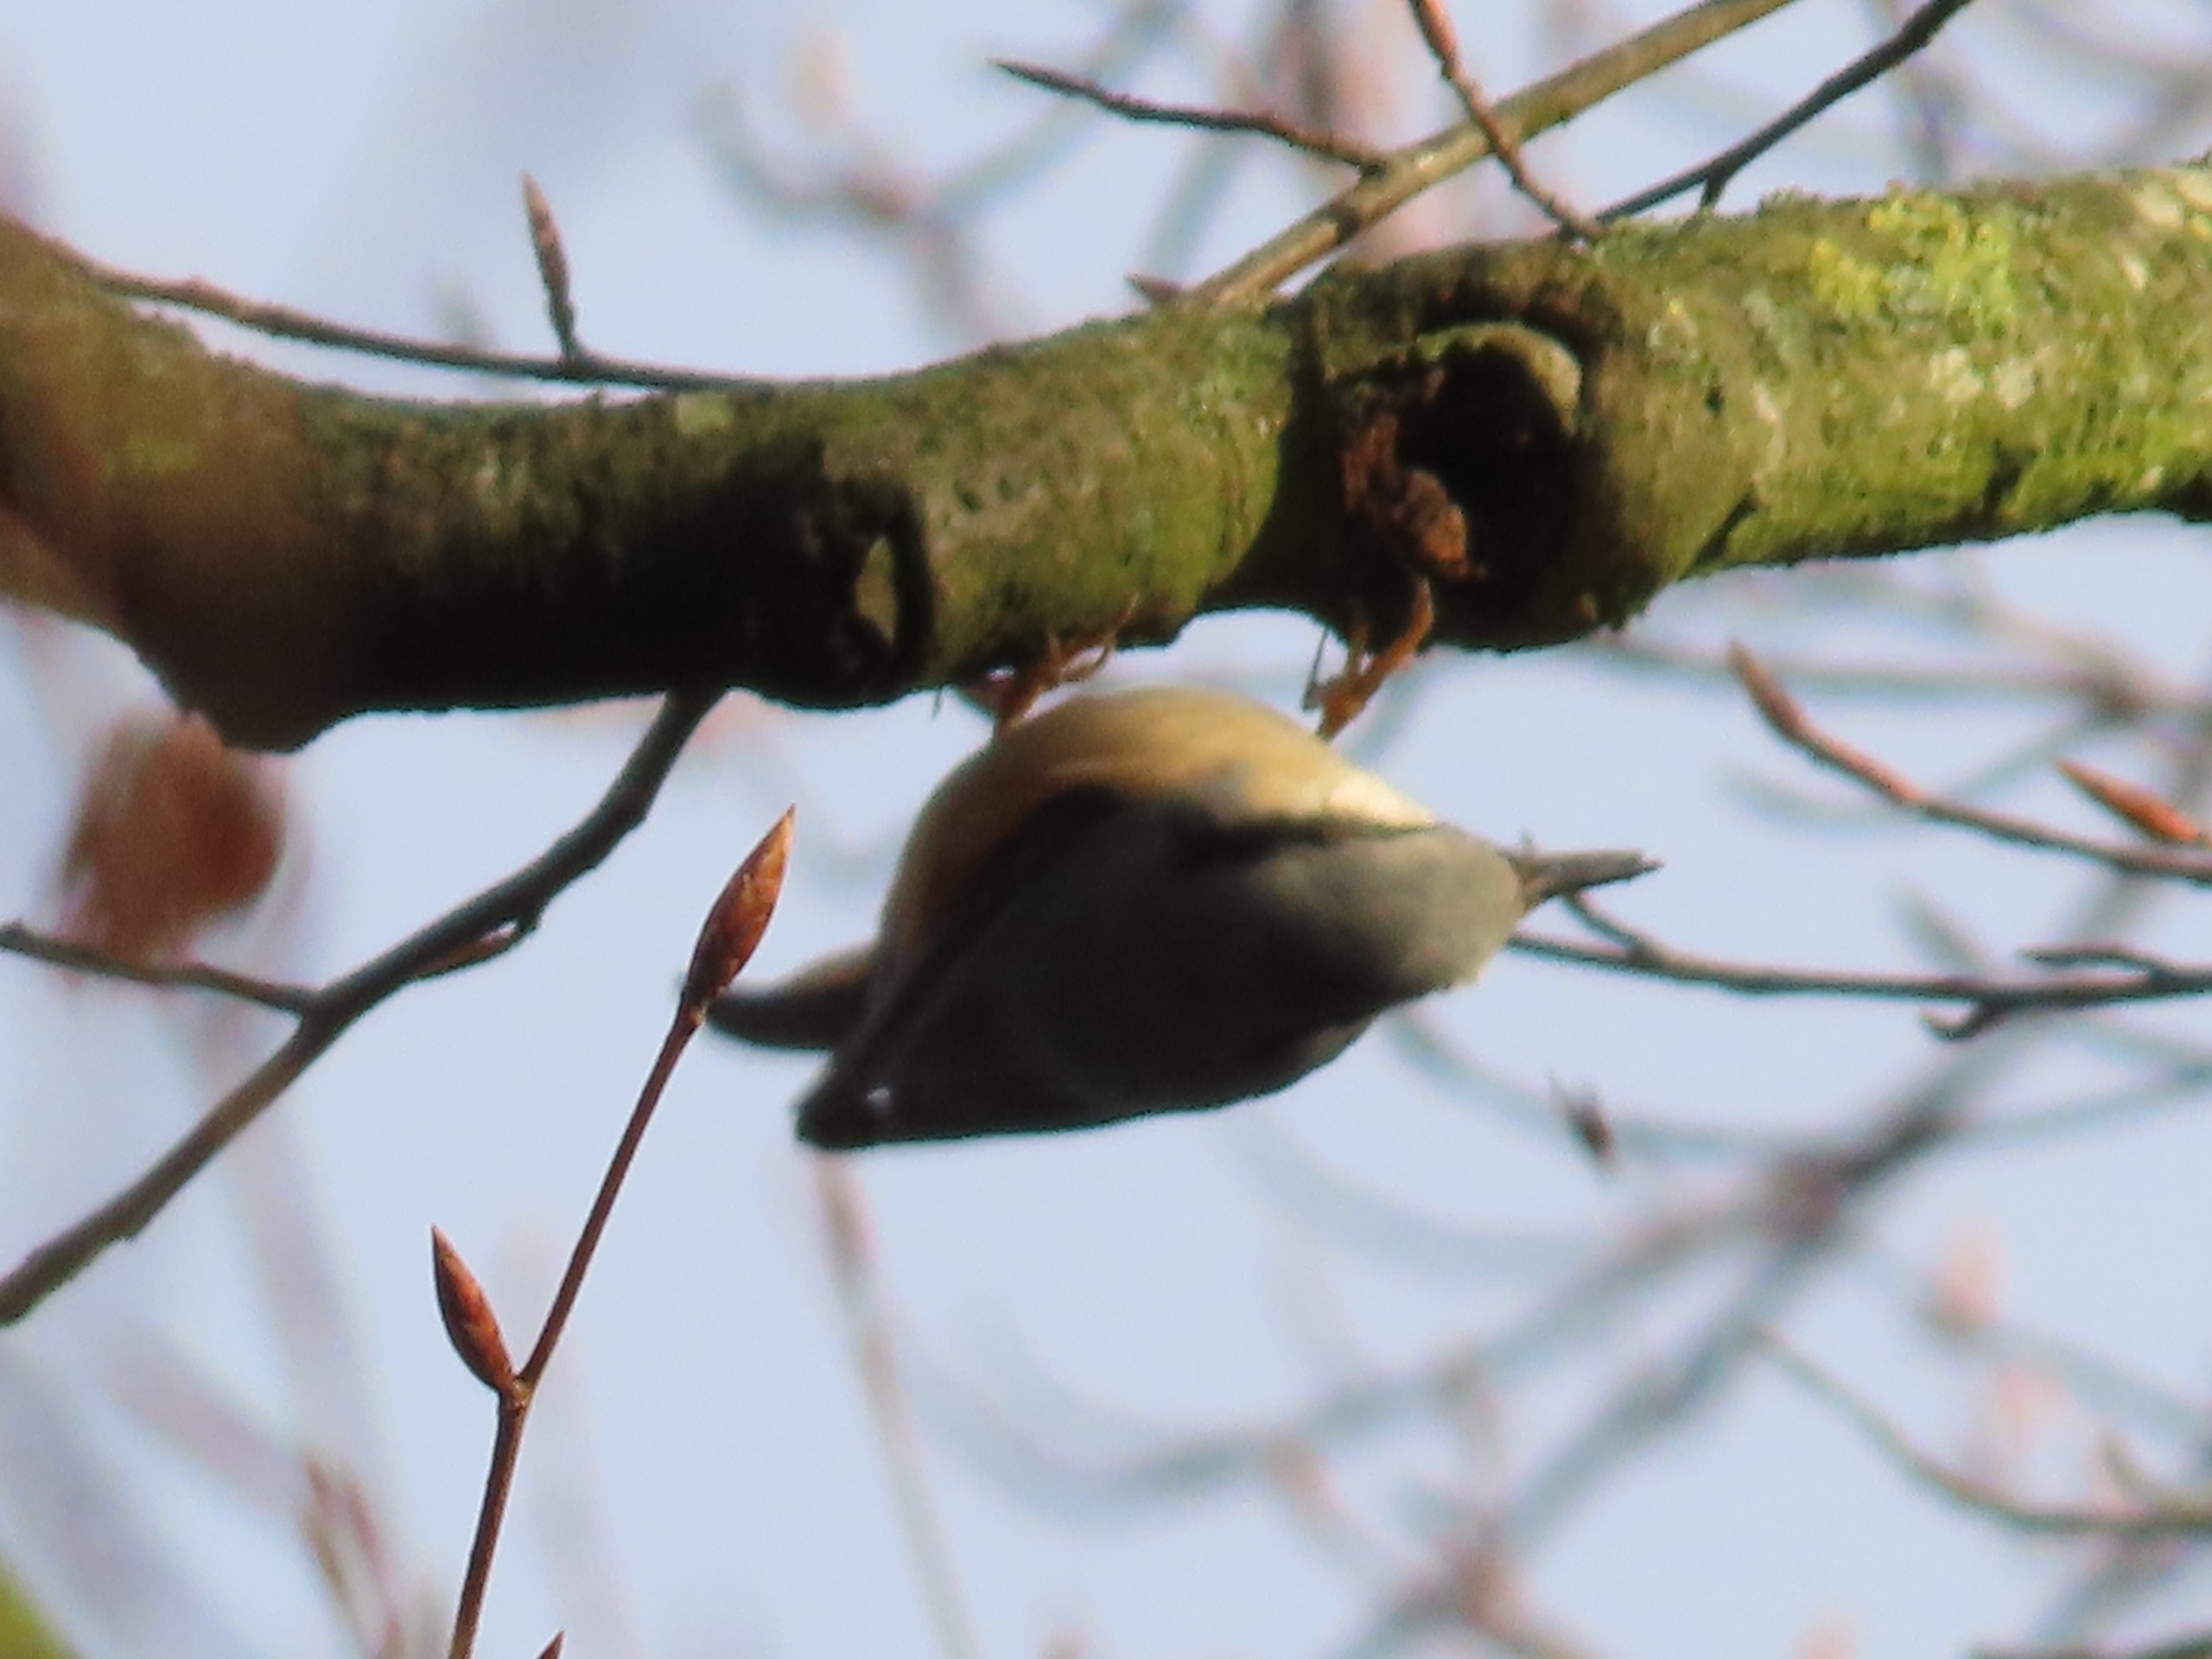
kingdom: Animalia
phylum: Chordata
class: Aves
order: Passeriformes
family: Sittidae
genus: Sitta
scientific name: Sitta europaea
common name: Spætmejse
